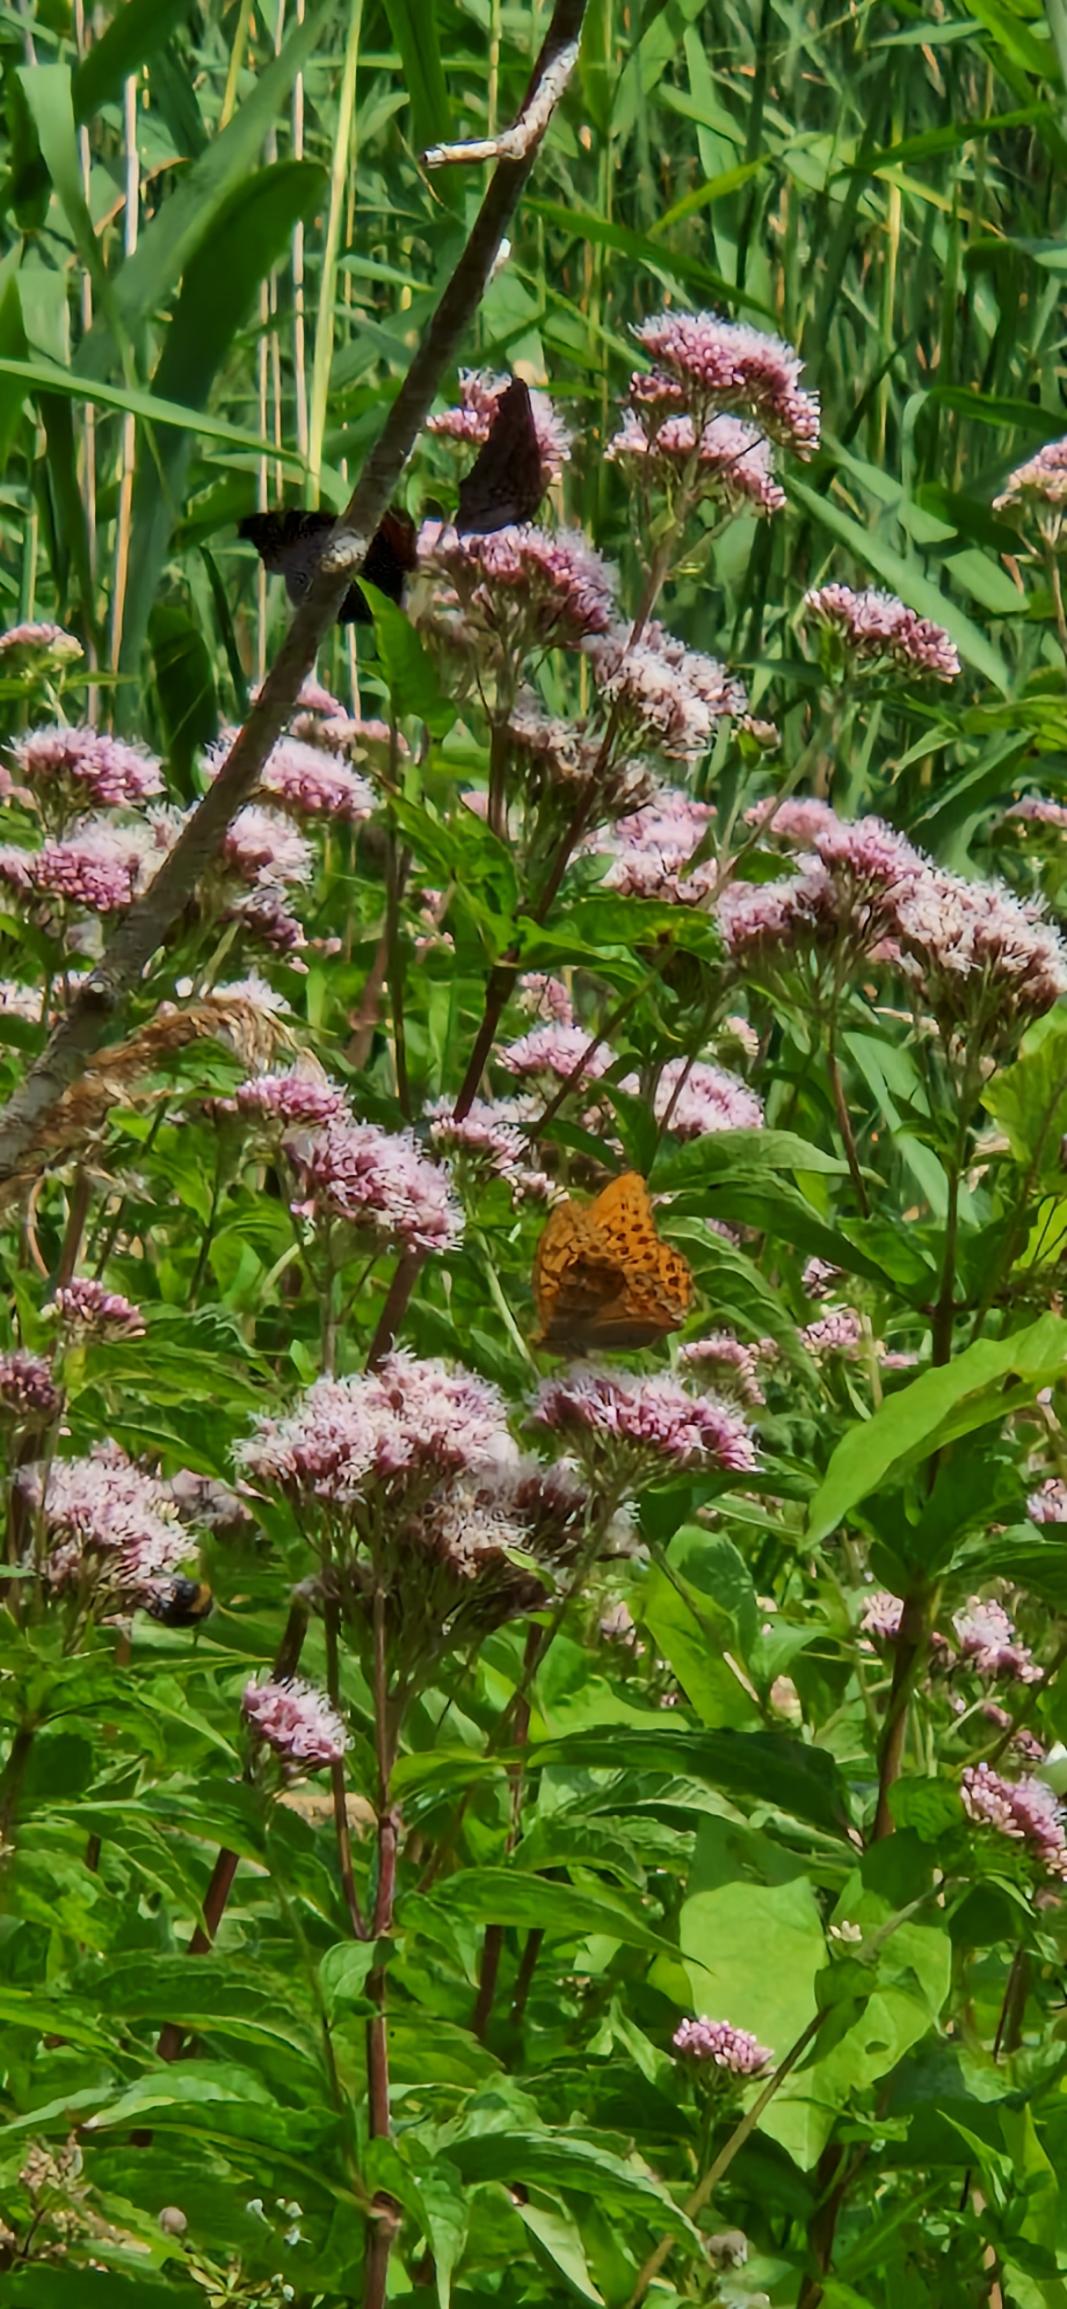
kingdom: Animalia
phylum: Arthropoda
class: Insecta
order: Lepidoptera
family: Nymphalidae
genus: Argynnis
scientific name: Argynnis paphia
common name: Kejserkåbe
